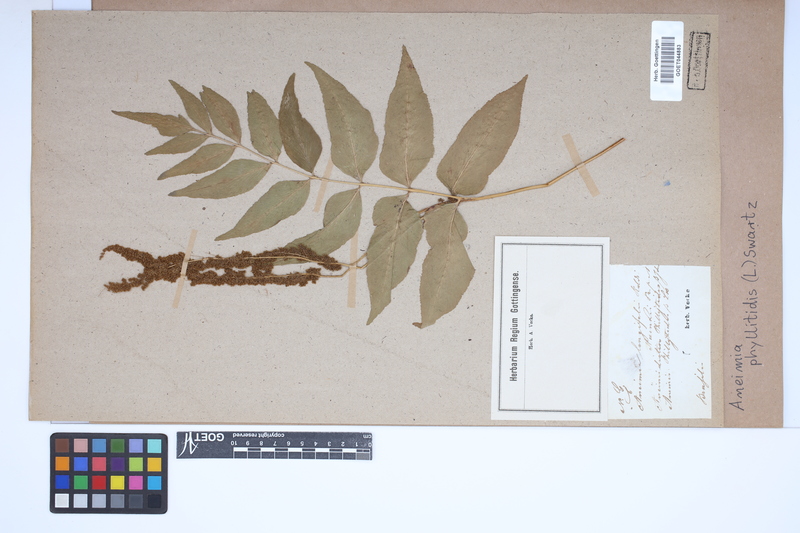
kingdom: Plantae
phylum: Tracheophyta
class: Polypodiopsida
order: Schizaeales
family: Anemiaceae
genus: Anemia
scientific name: Anemia phyllitidis
